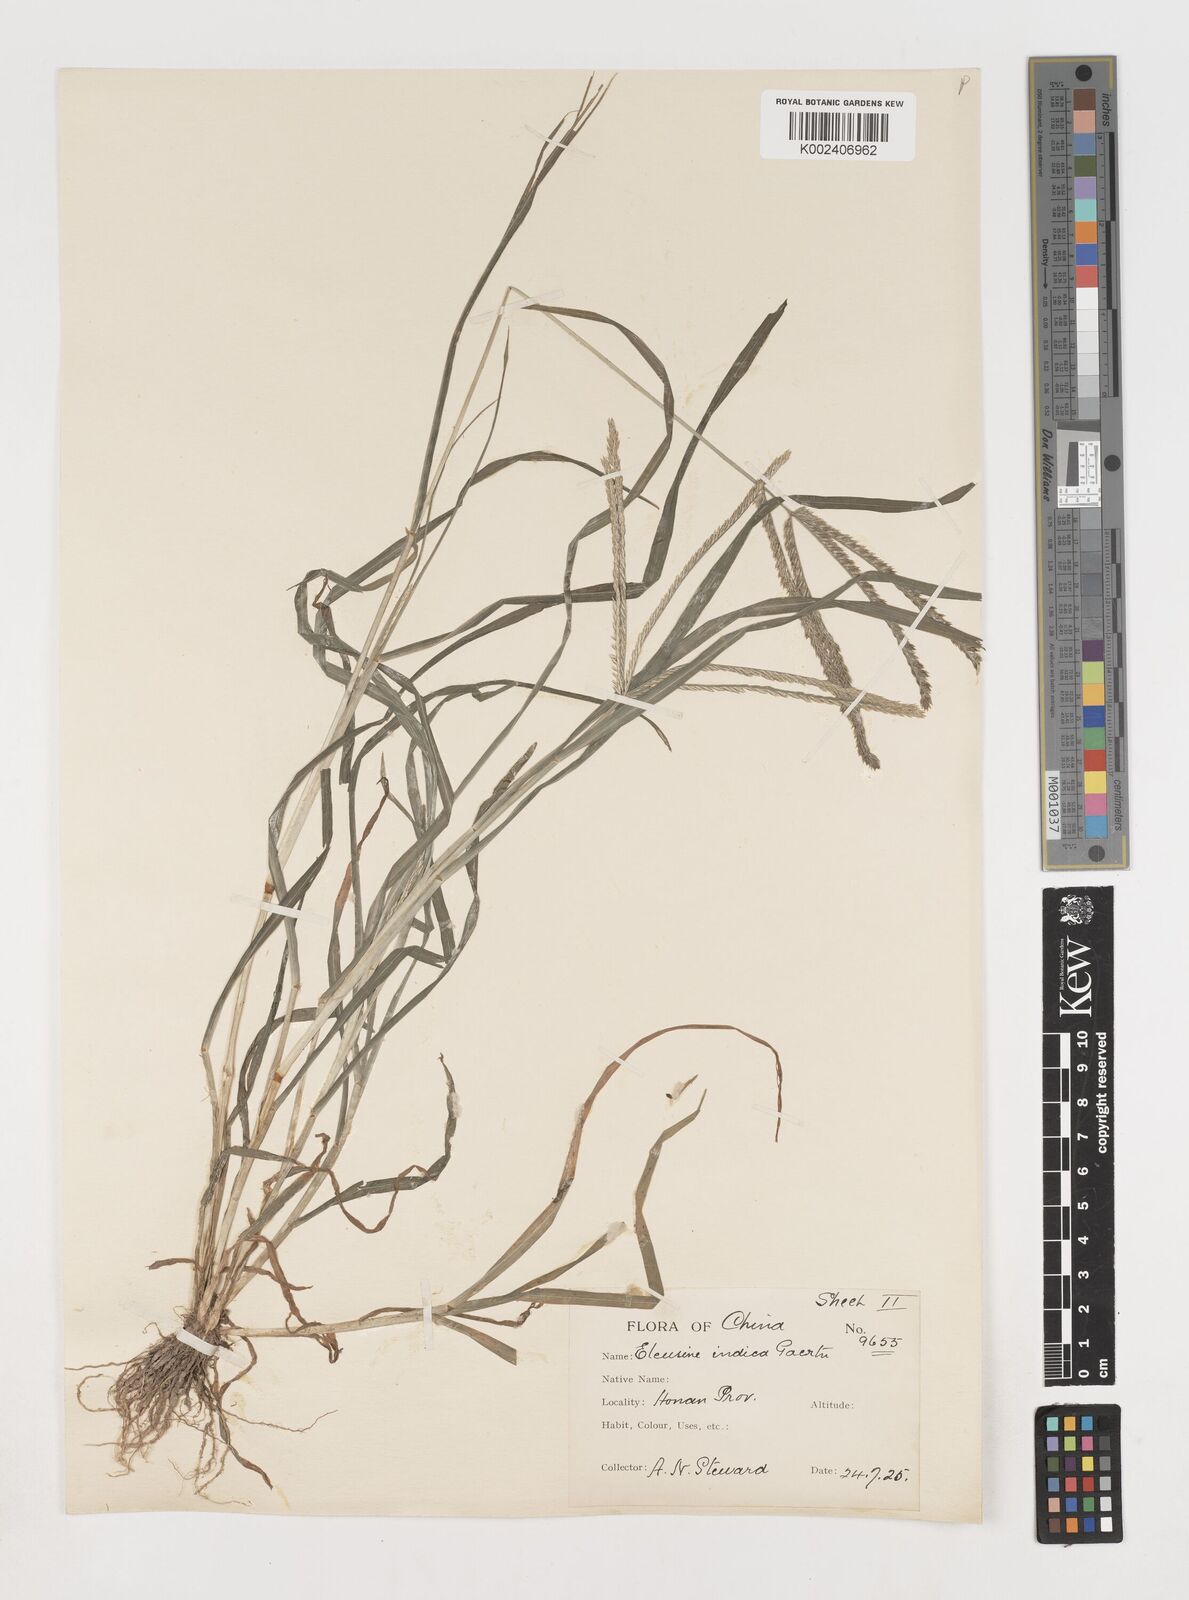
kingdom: Plantae
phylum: Tracheophyta
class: Liliopsida
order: Poales
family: Poaceae
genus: Eleusine
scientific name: Eleusine indica
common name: Yard-grass
